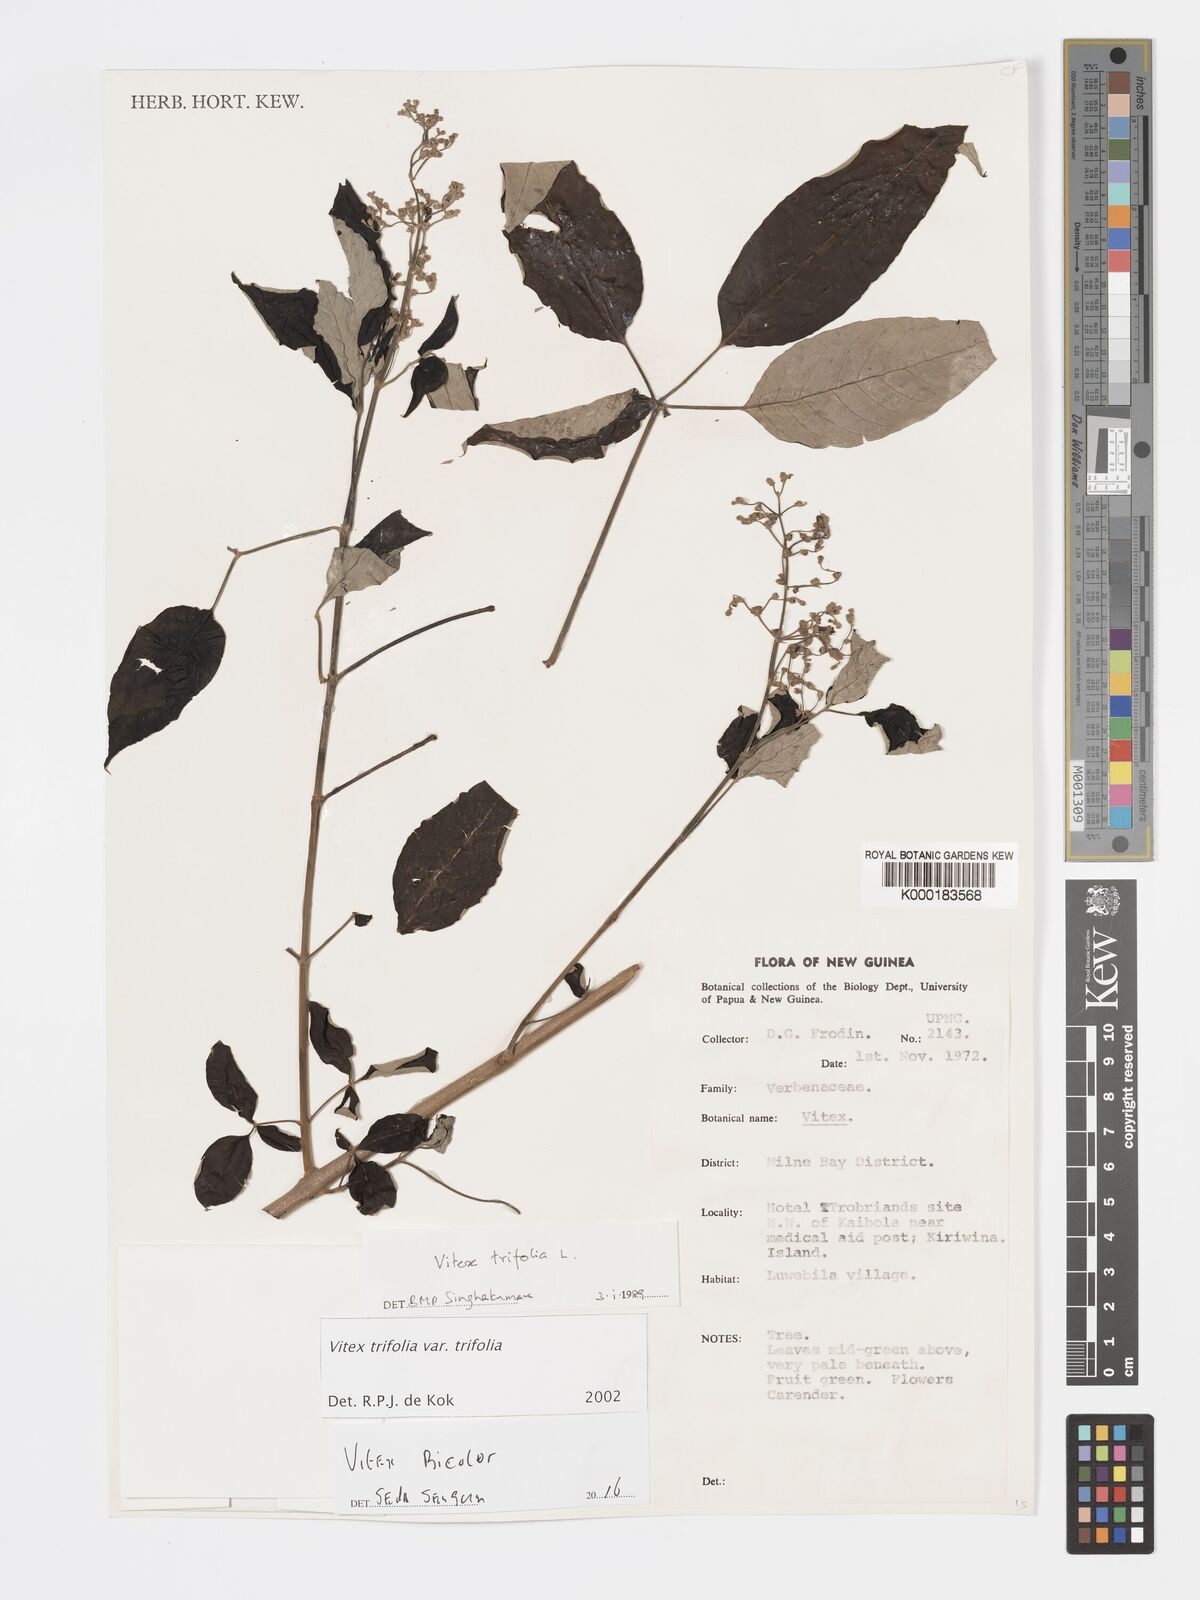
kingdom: Plantae
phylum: Tracheophyta
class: Magnoliopsida
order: Lamiales
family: Lamiaceae
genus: Vitex
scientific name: Vitex bicolor
